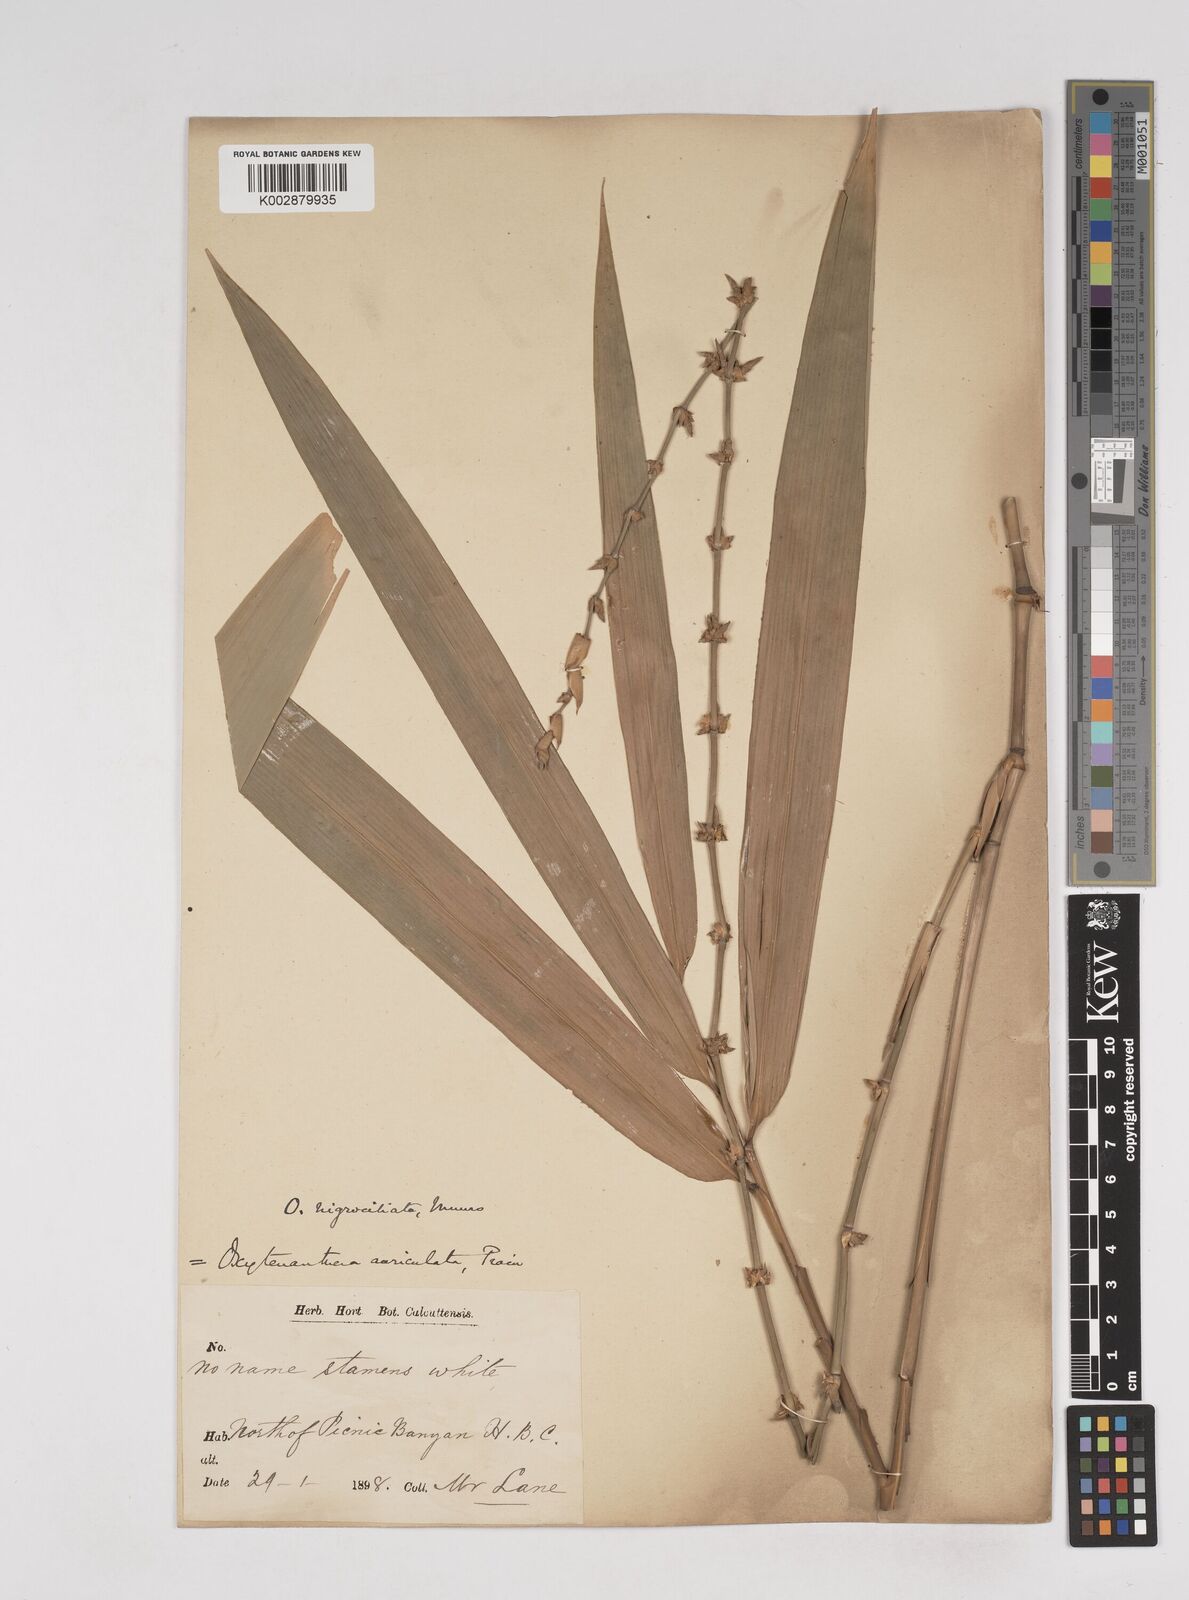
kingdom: Plantae
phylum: Tracheophyta
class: Liliopsida
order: Poales
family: Poaceae
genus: Gigantochloa
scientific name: Gigantochloa nigrociliata
